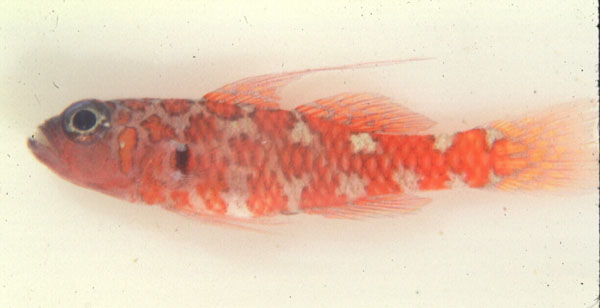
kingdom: Animalia
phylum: Chordata
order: Perciformes
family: Gobiidae
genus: Trimma
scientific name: Trimma naudei
